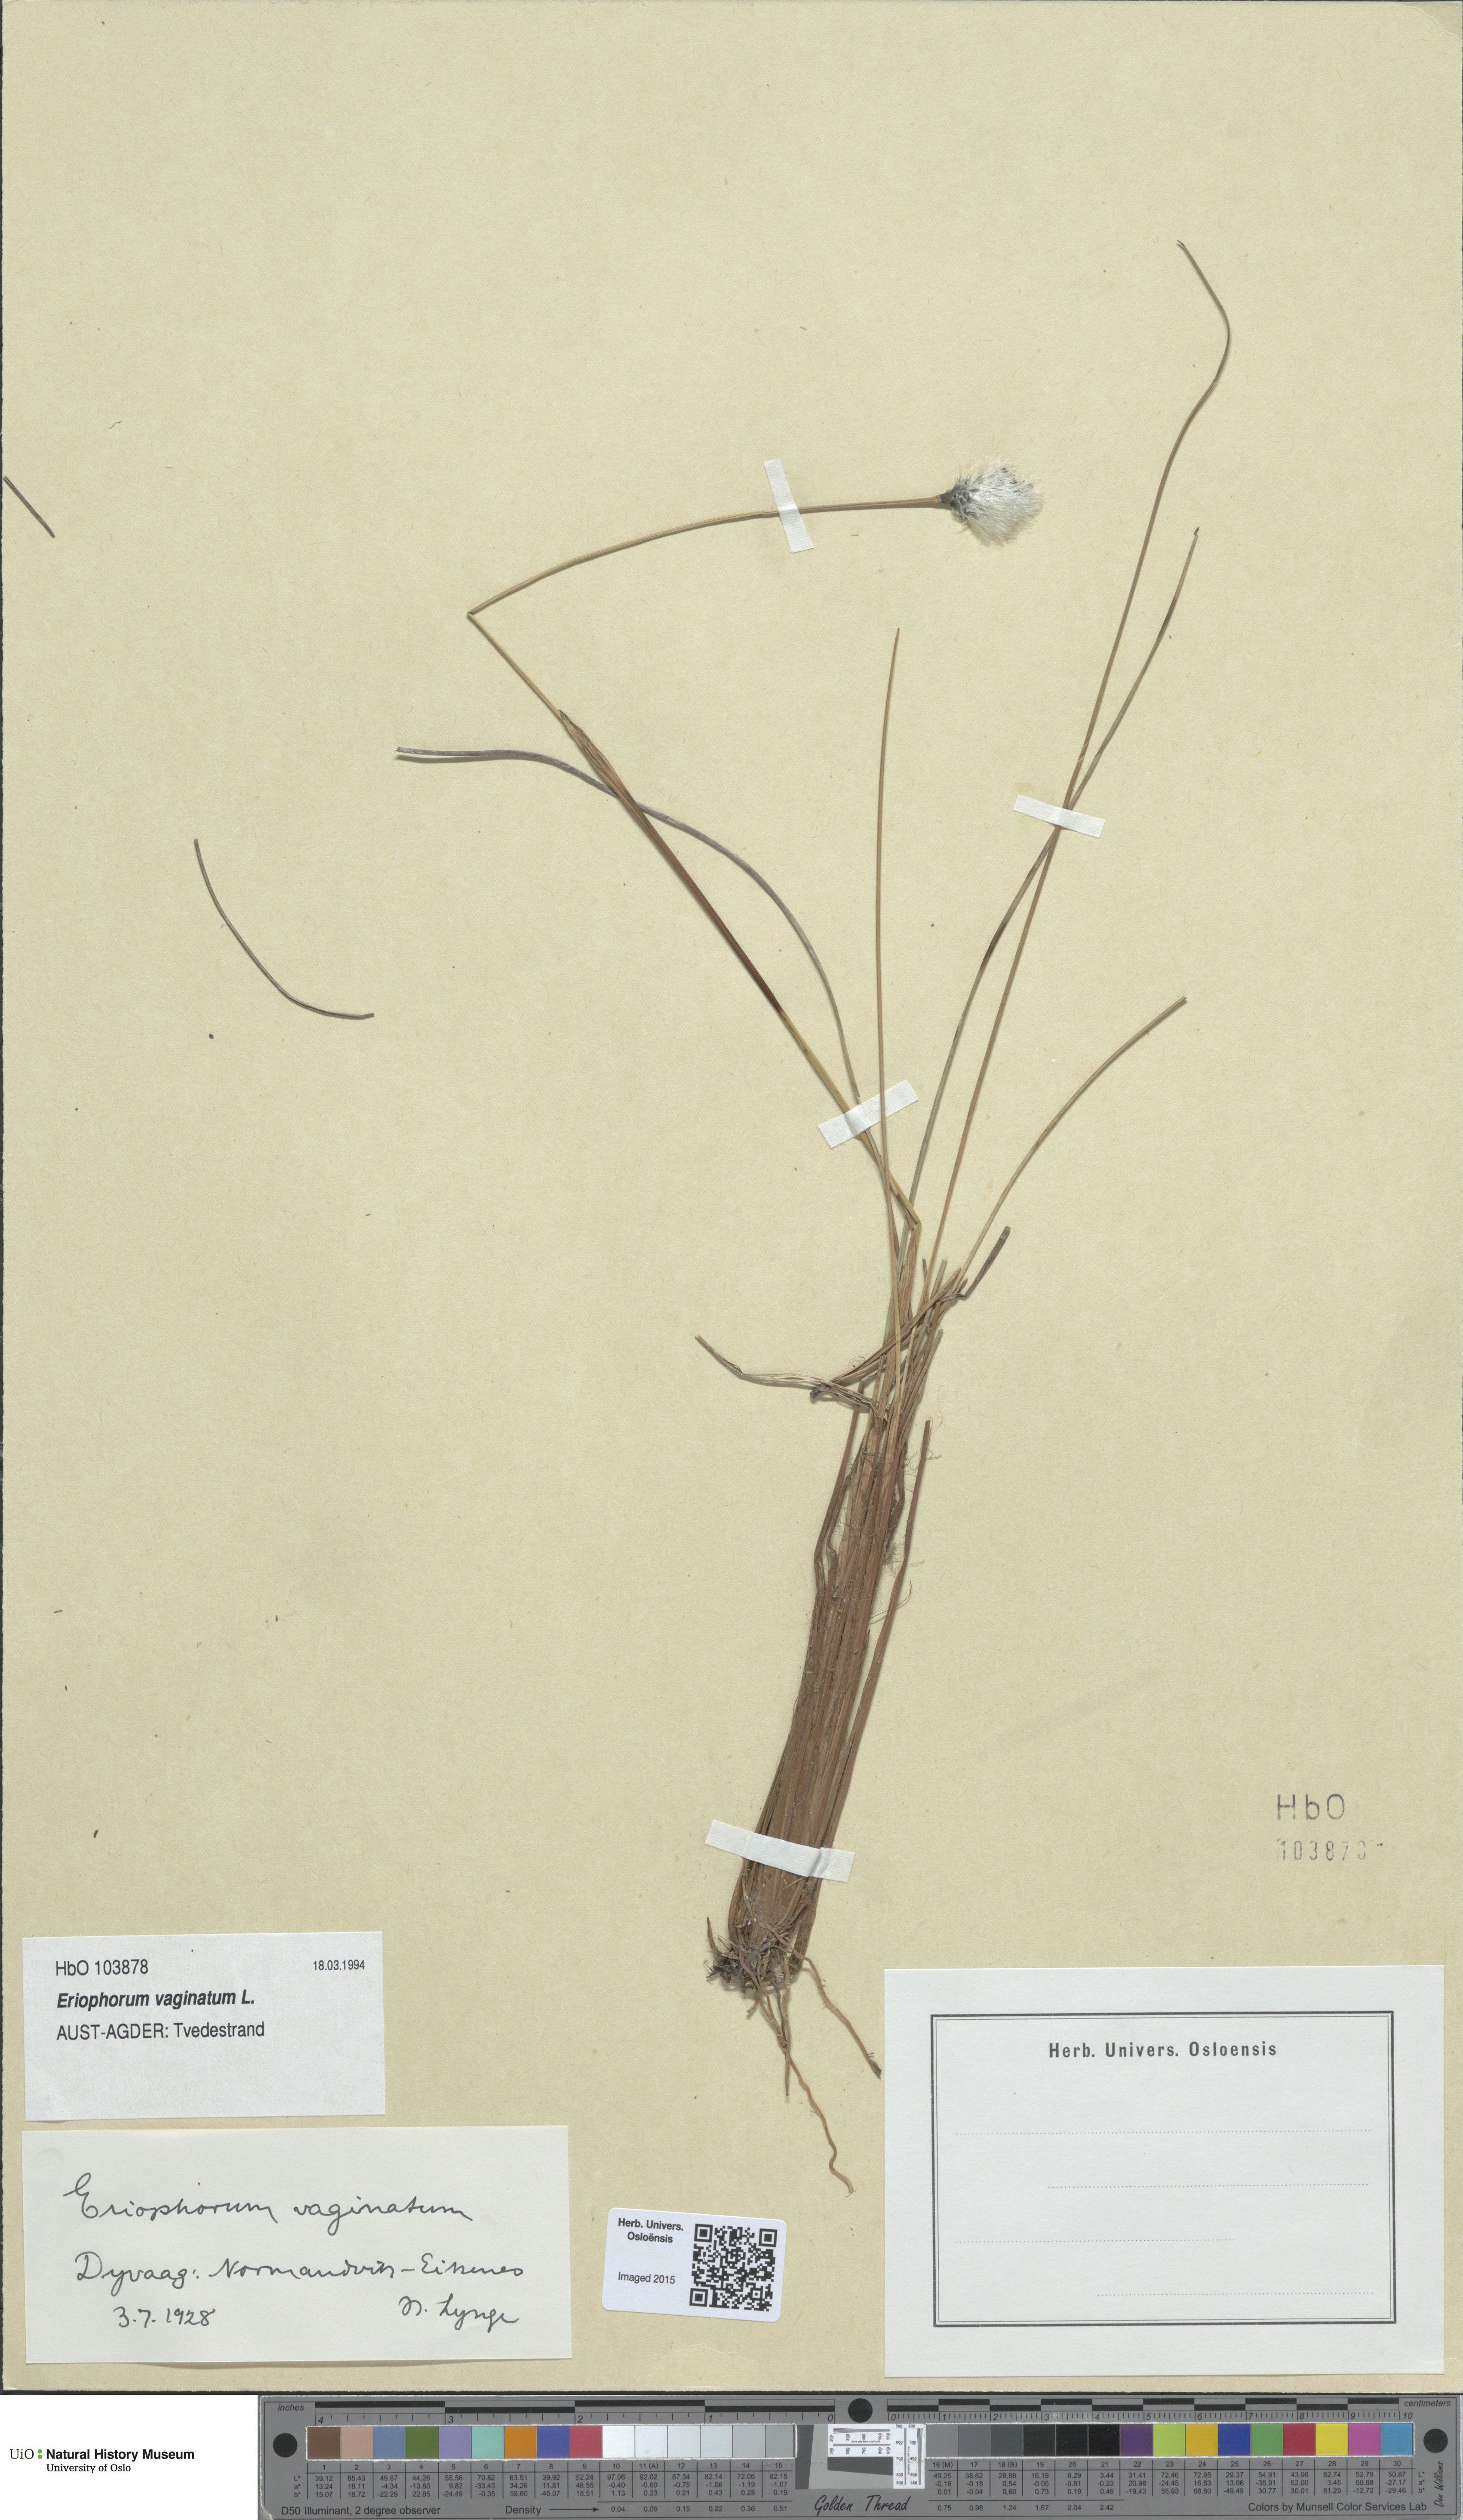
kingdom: Plantae
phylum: Tracheophyta
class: Liliopsida
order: Poales
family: Cyperaceae
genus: Eriophorum
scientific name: Eriophorum vaginatum
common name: Hare's-tail cottongrass
